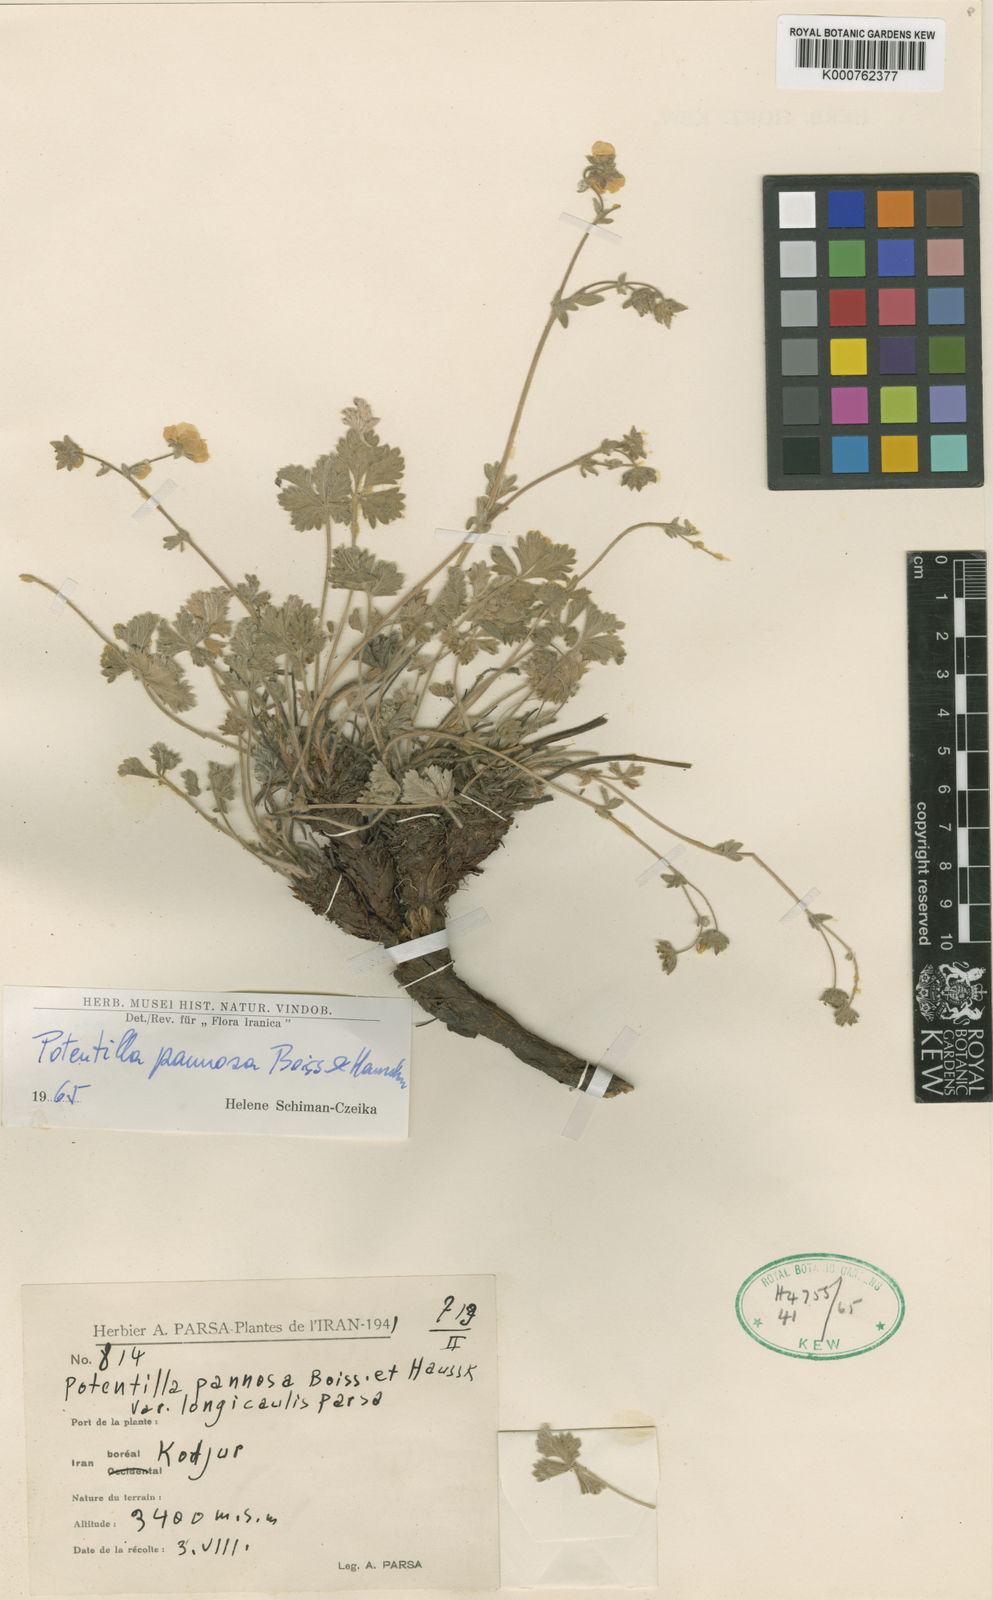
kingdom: Plantae
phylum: Tracheophyta
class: Magnoliopsida
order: Rosales
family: Rosaceae
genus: Potentilla
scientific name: Potentilla pannosa
